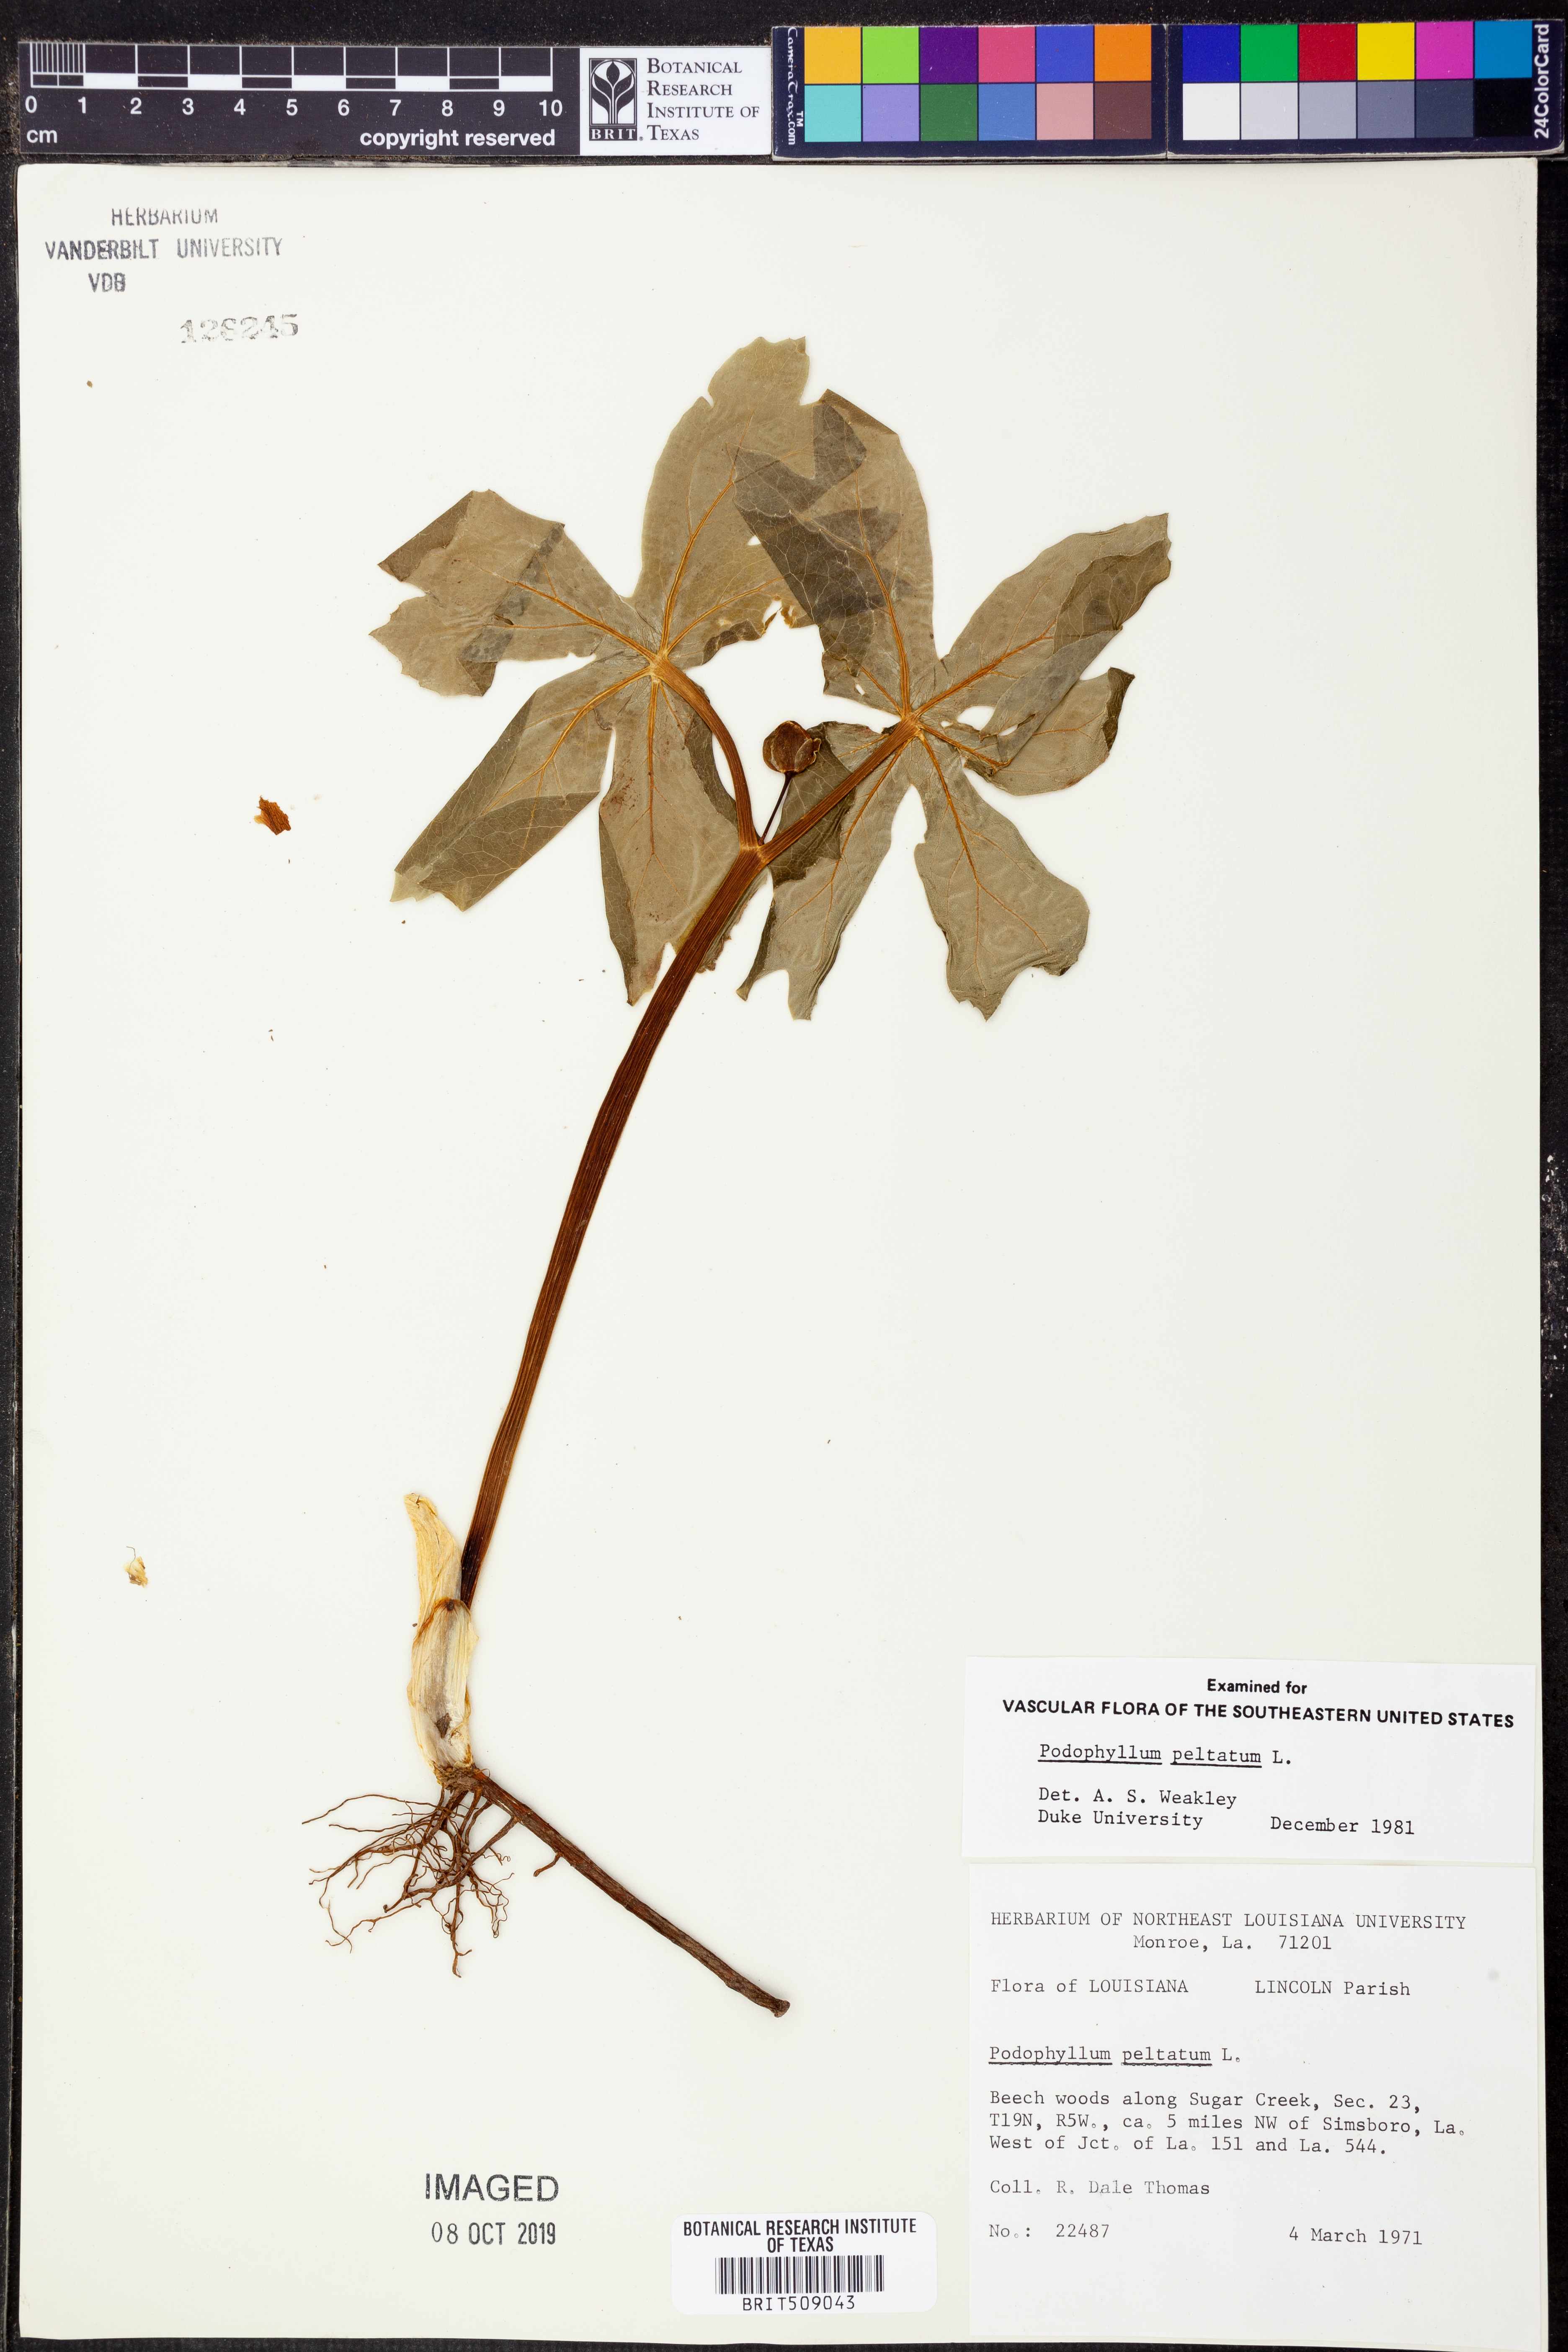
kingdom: Plantae
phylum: Tracheophyta
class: Magnoliopsida
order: Ranunculales
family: Berberidaceae
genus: Podophyllum
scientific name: Podophyllum peltatum
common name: Wild mandrake
